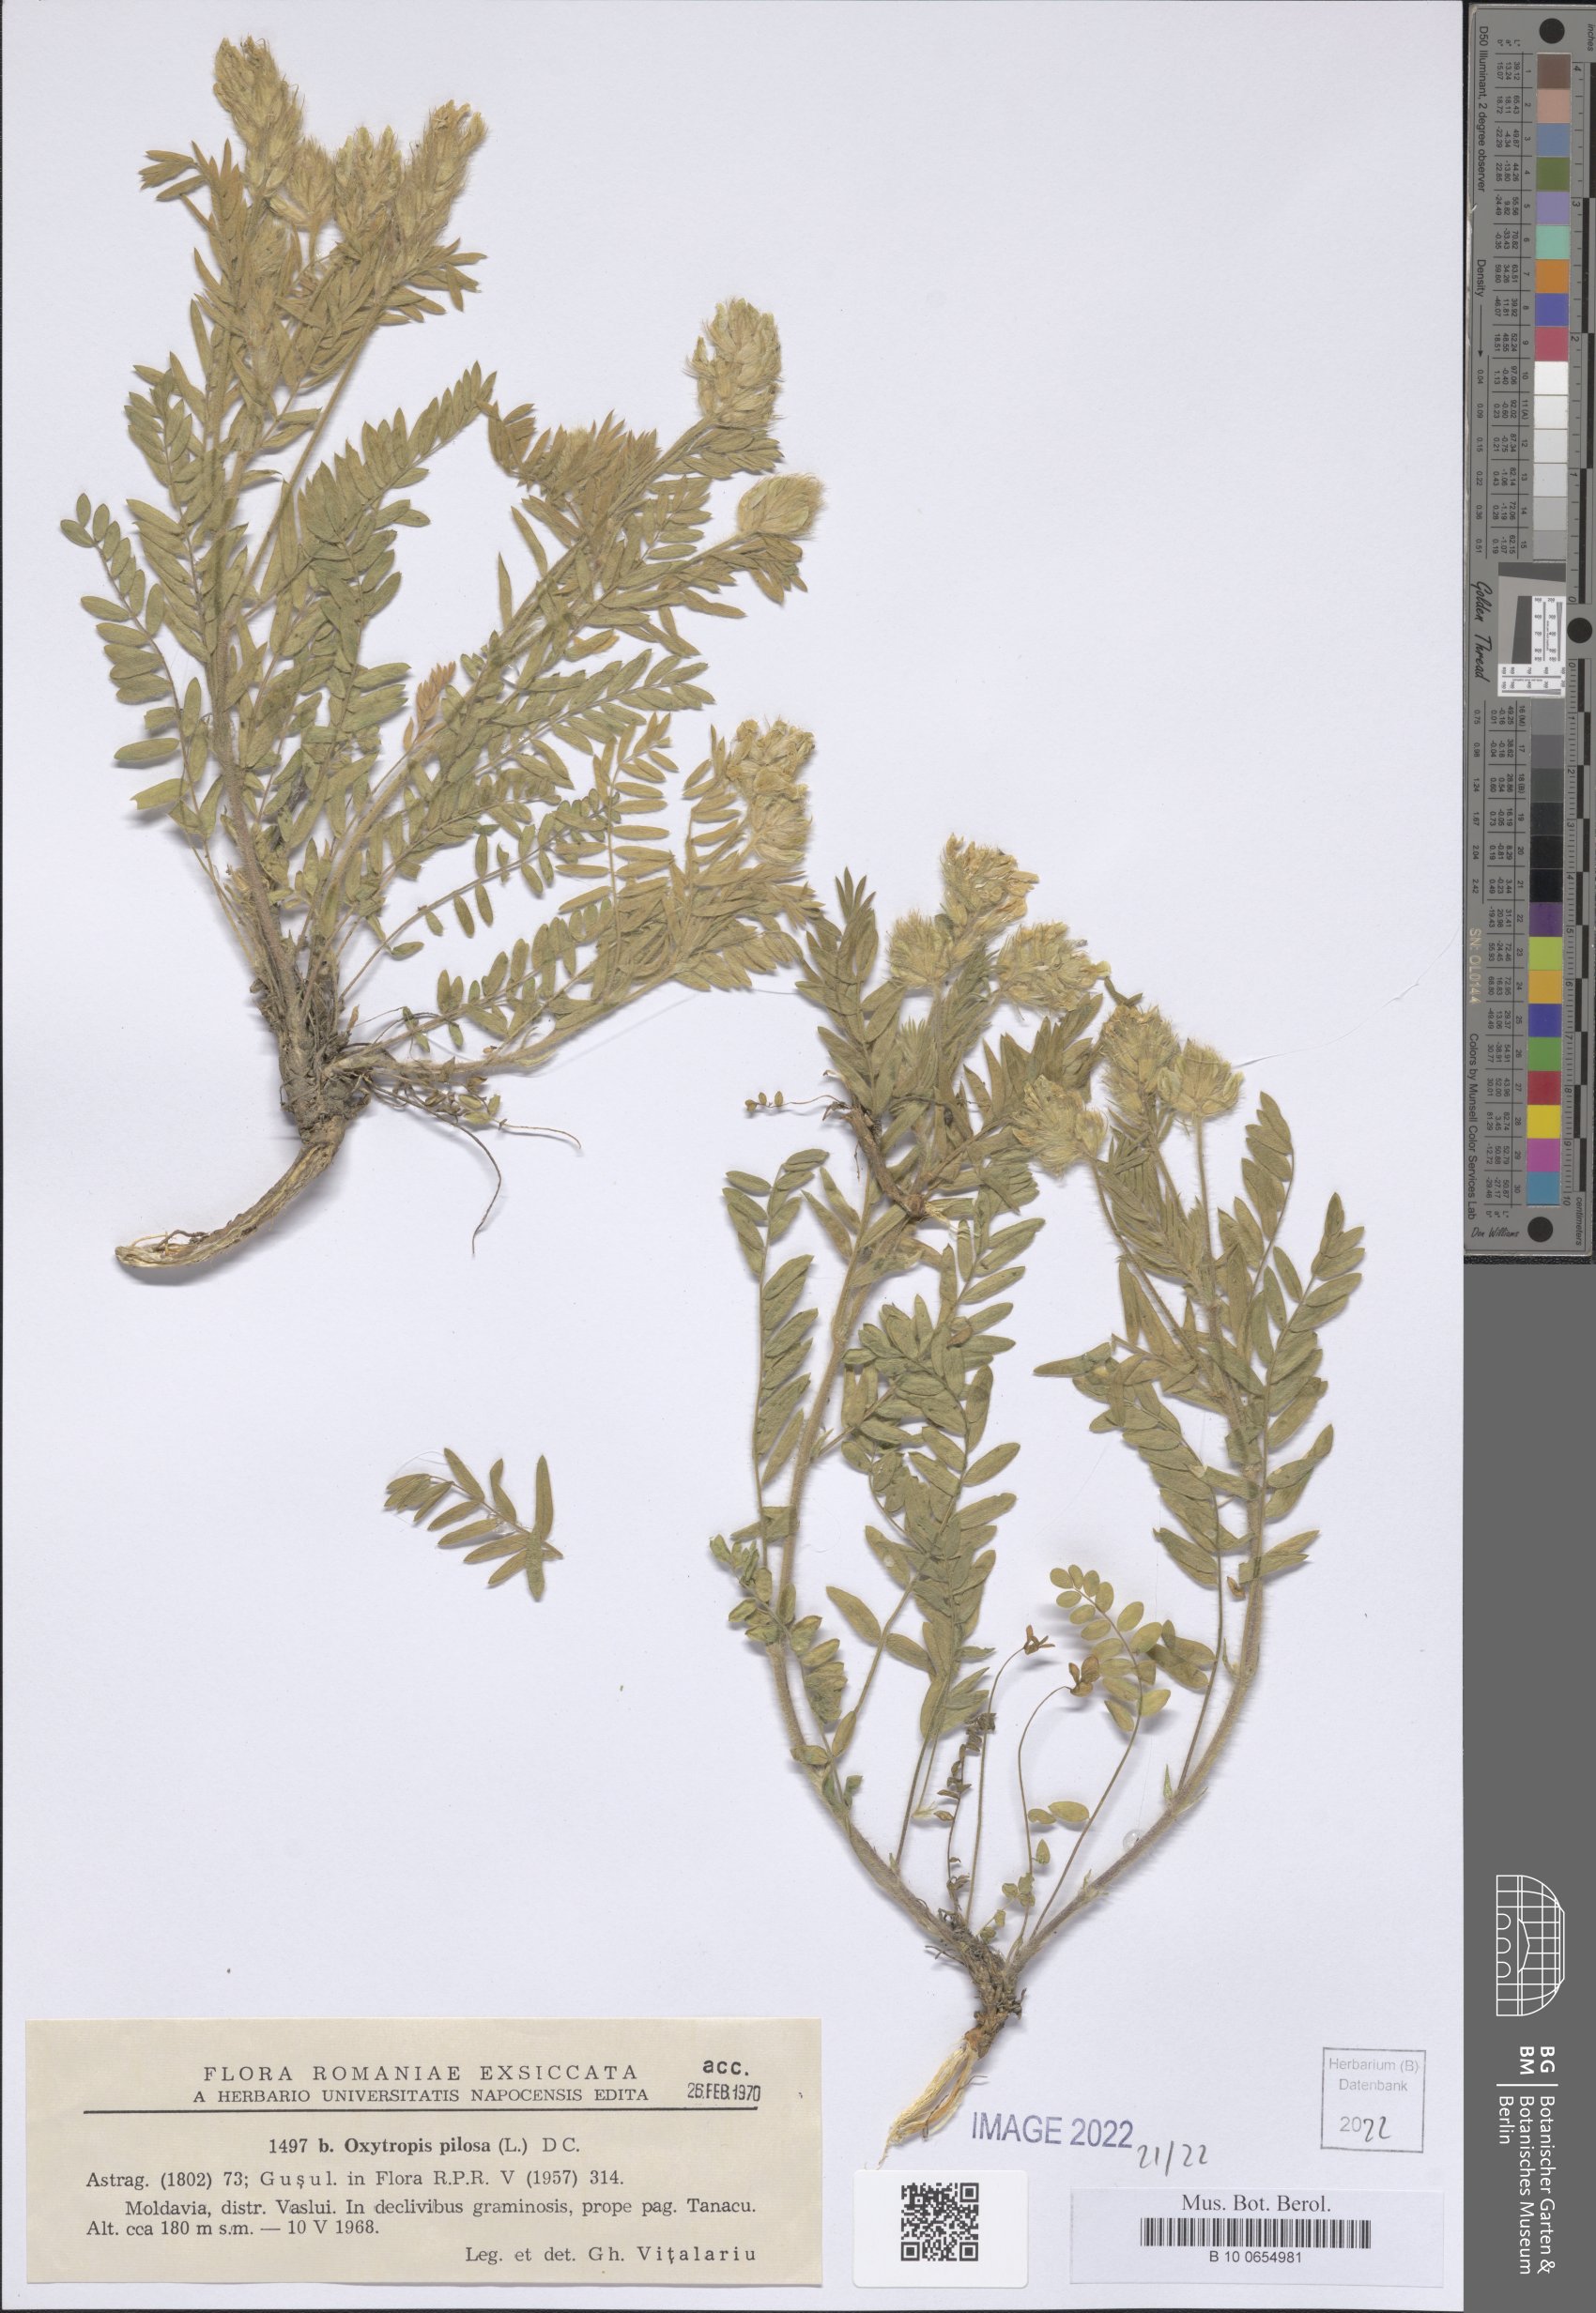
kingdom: Plantae
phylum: Tracheophyta
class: Magnoliopsida
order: Fabales
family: Fabaceae
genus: Oxytropis
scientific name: Oxytropis pilosa
